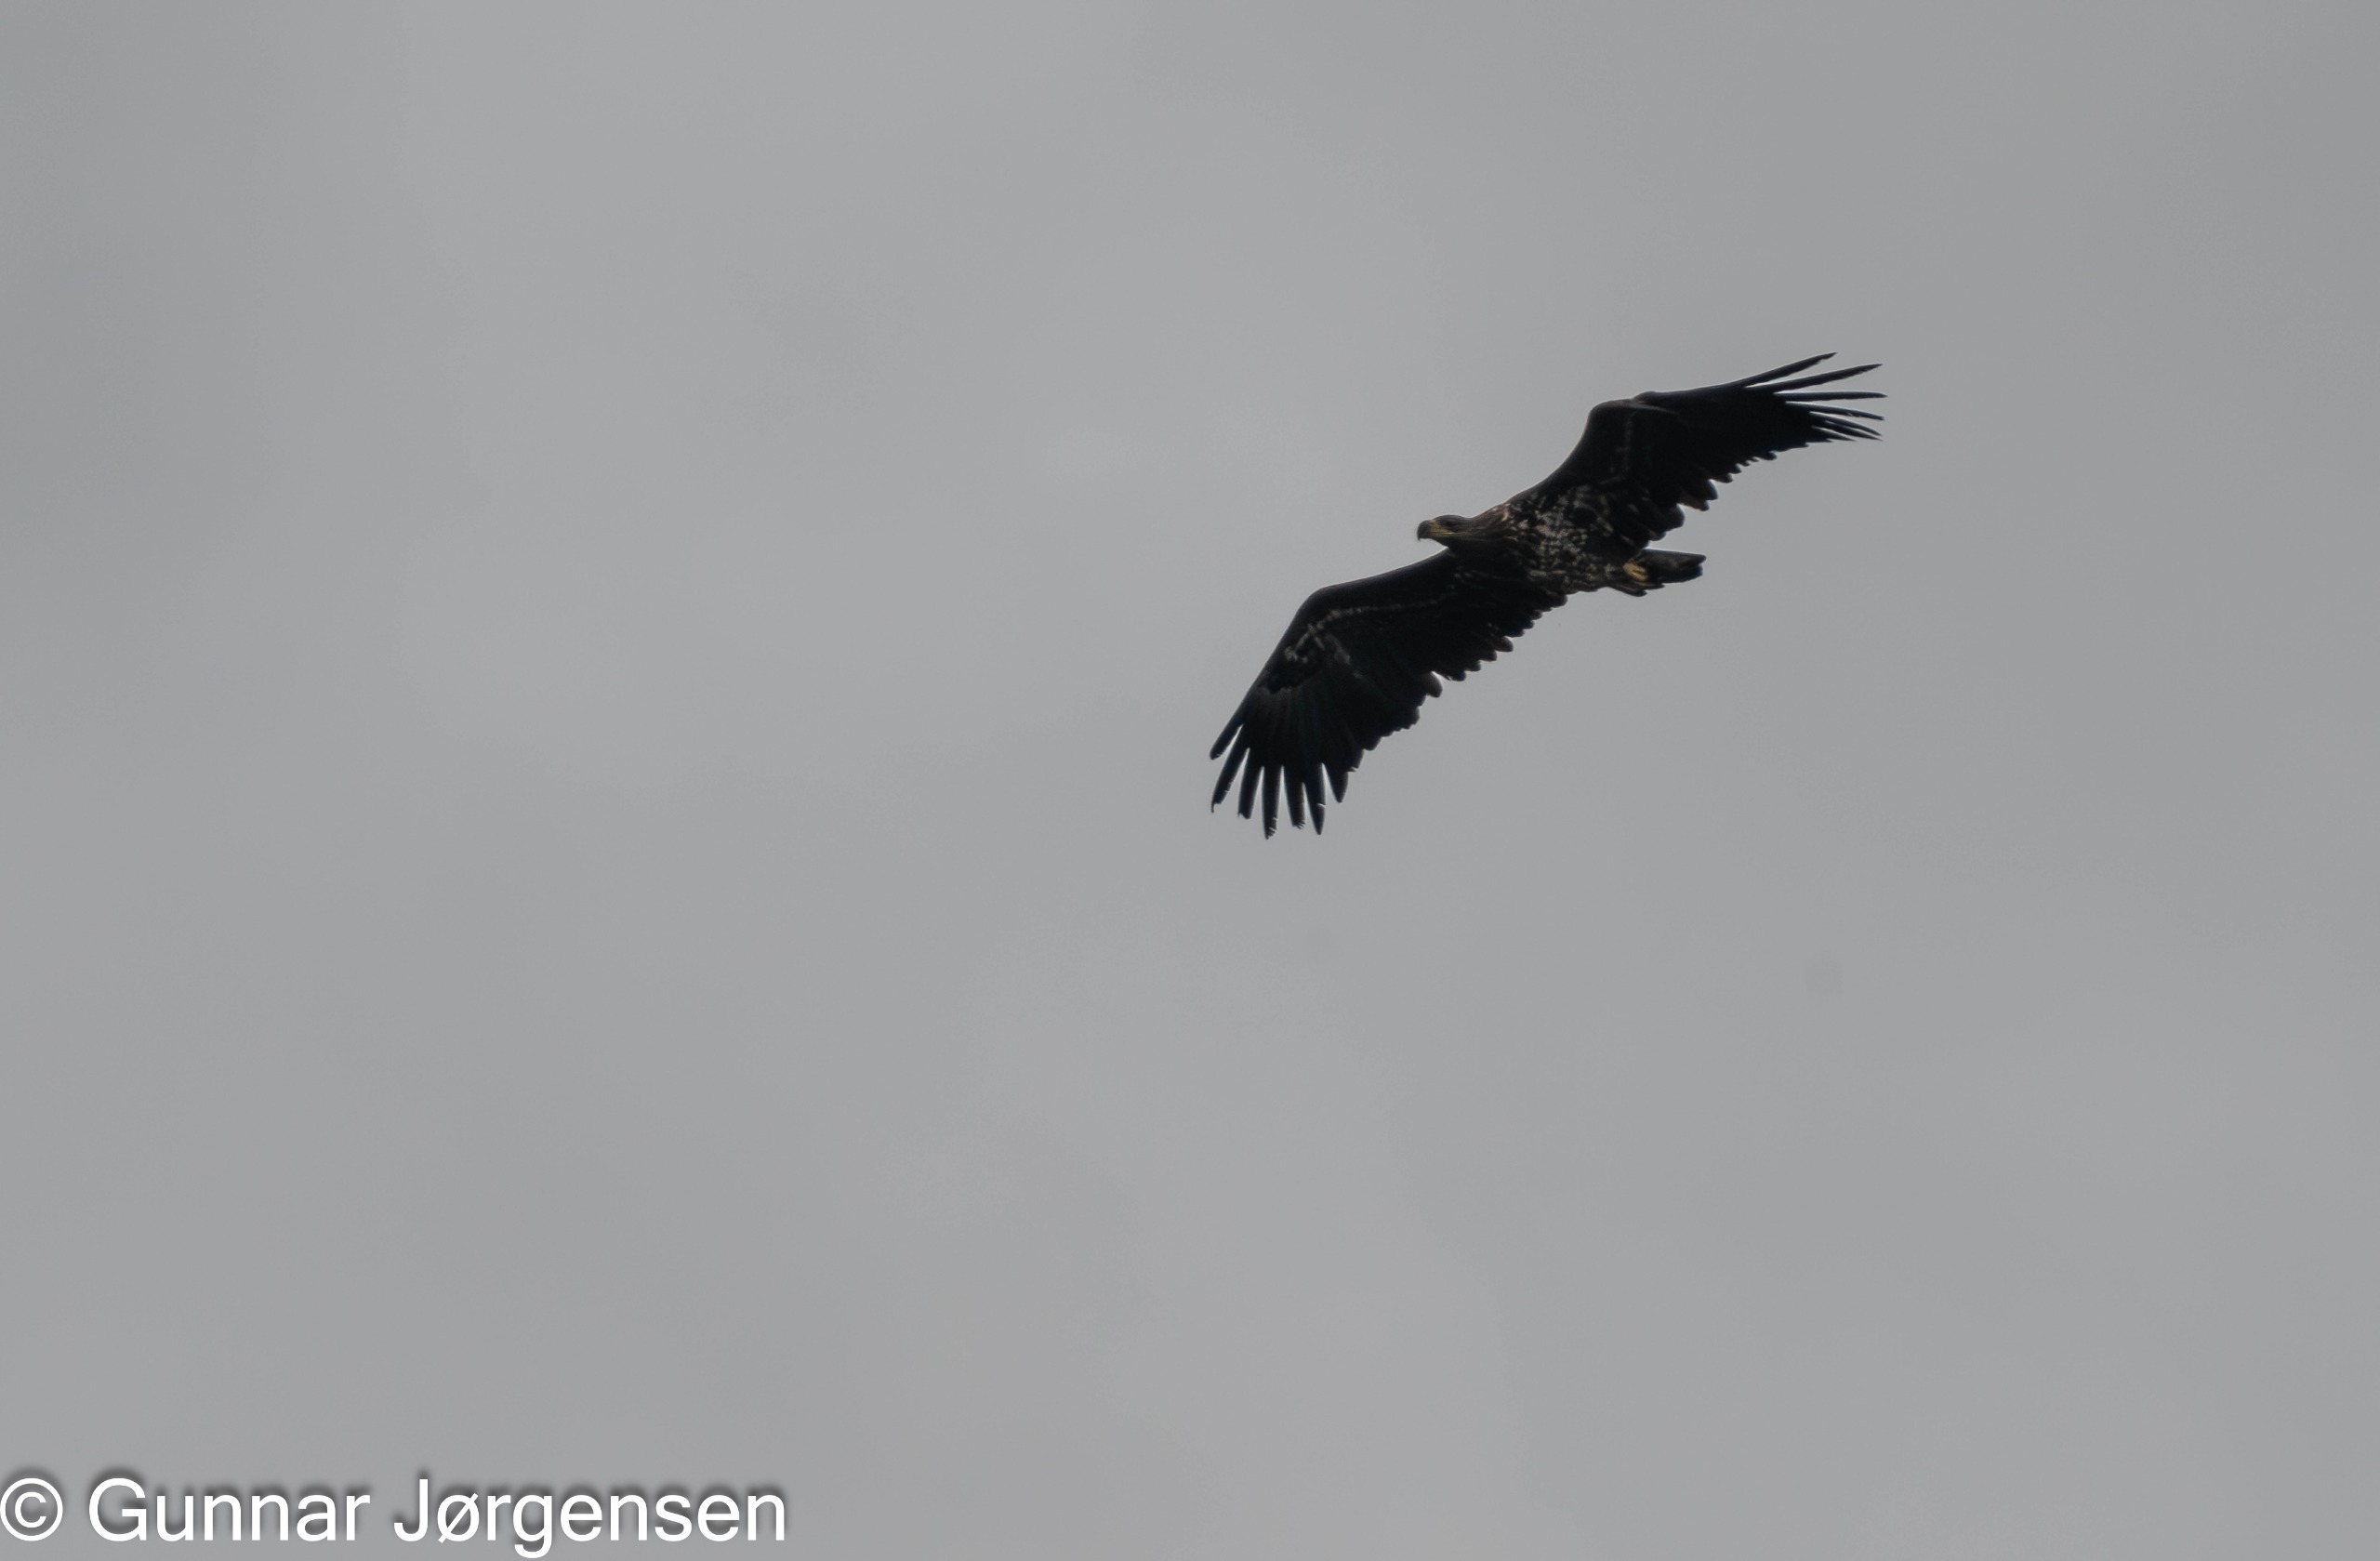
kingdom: Animalia
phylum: Chordata
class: Aves
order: Accipitriformes
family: Accipitridae
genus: Haliaeetus
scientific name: Haliaeetus albicilla
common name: Havørn
